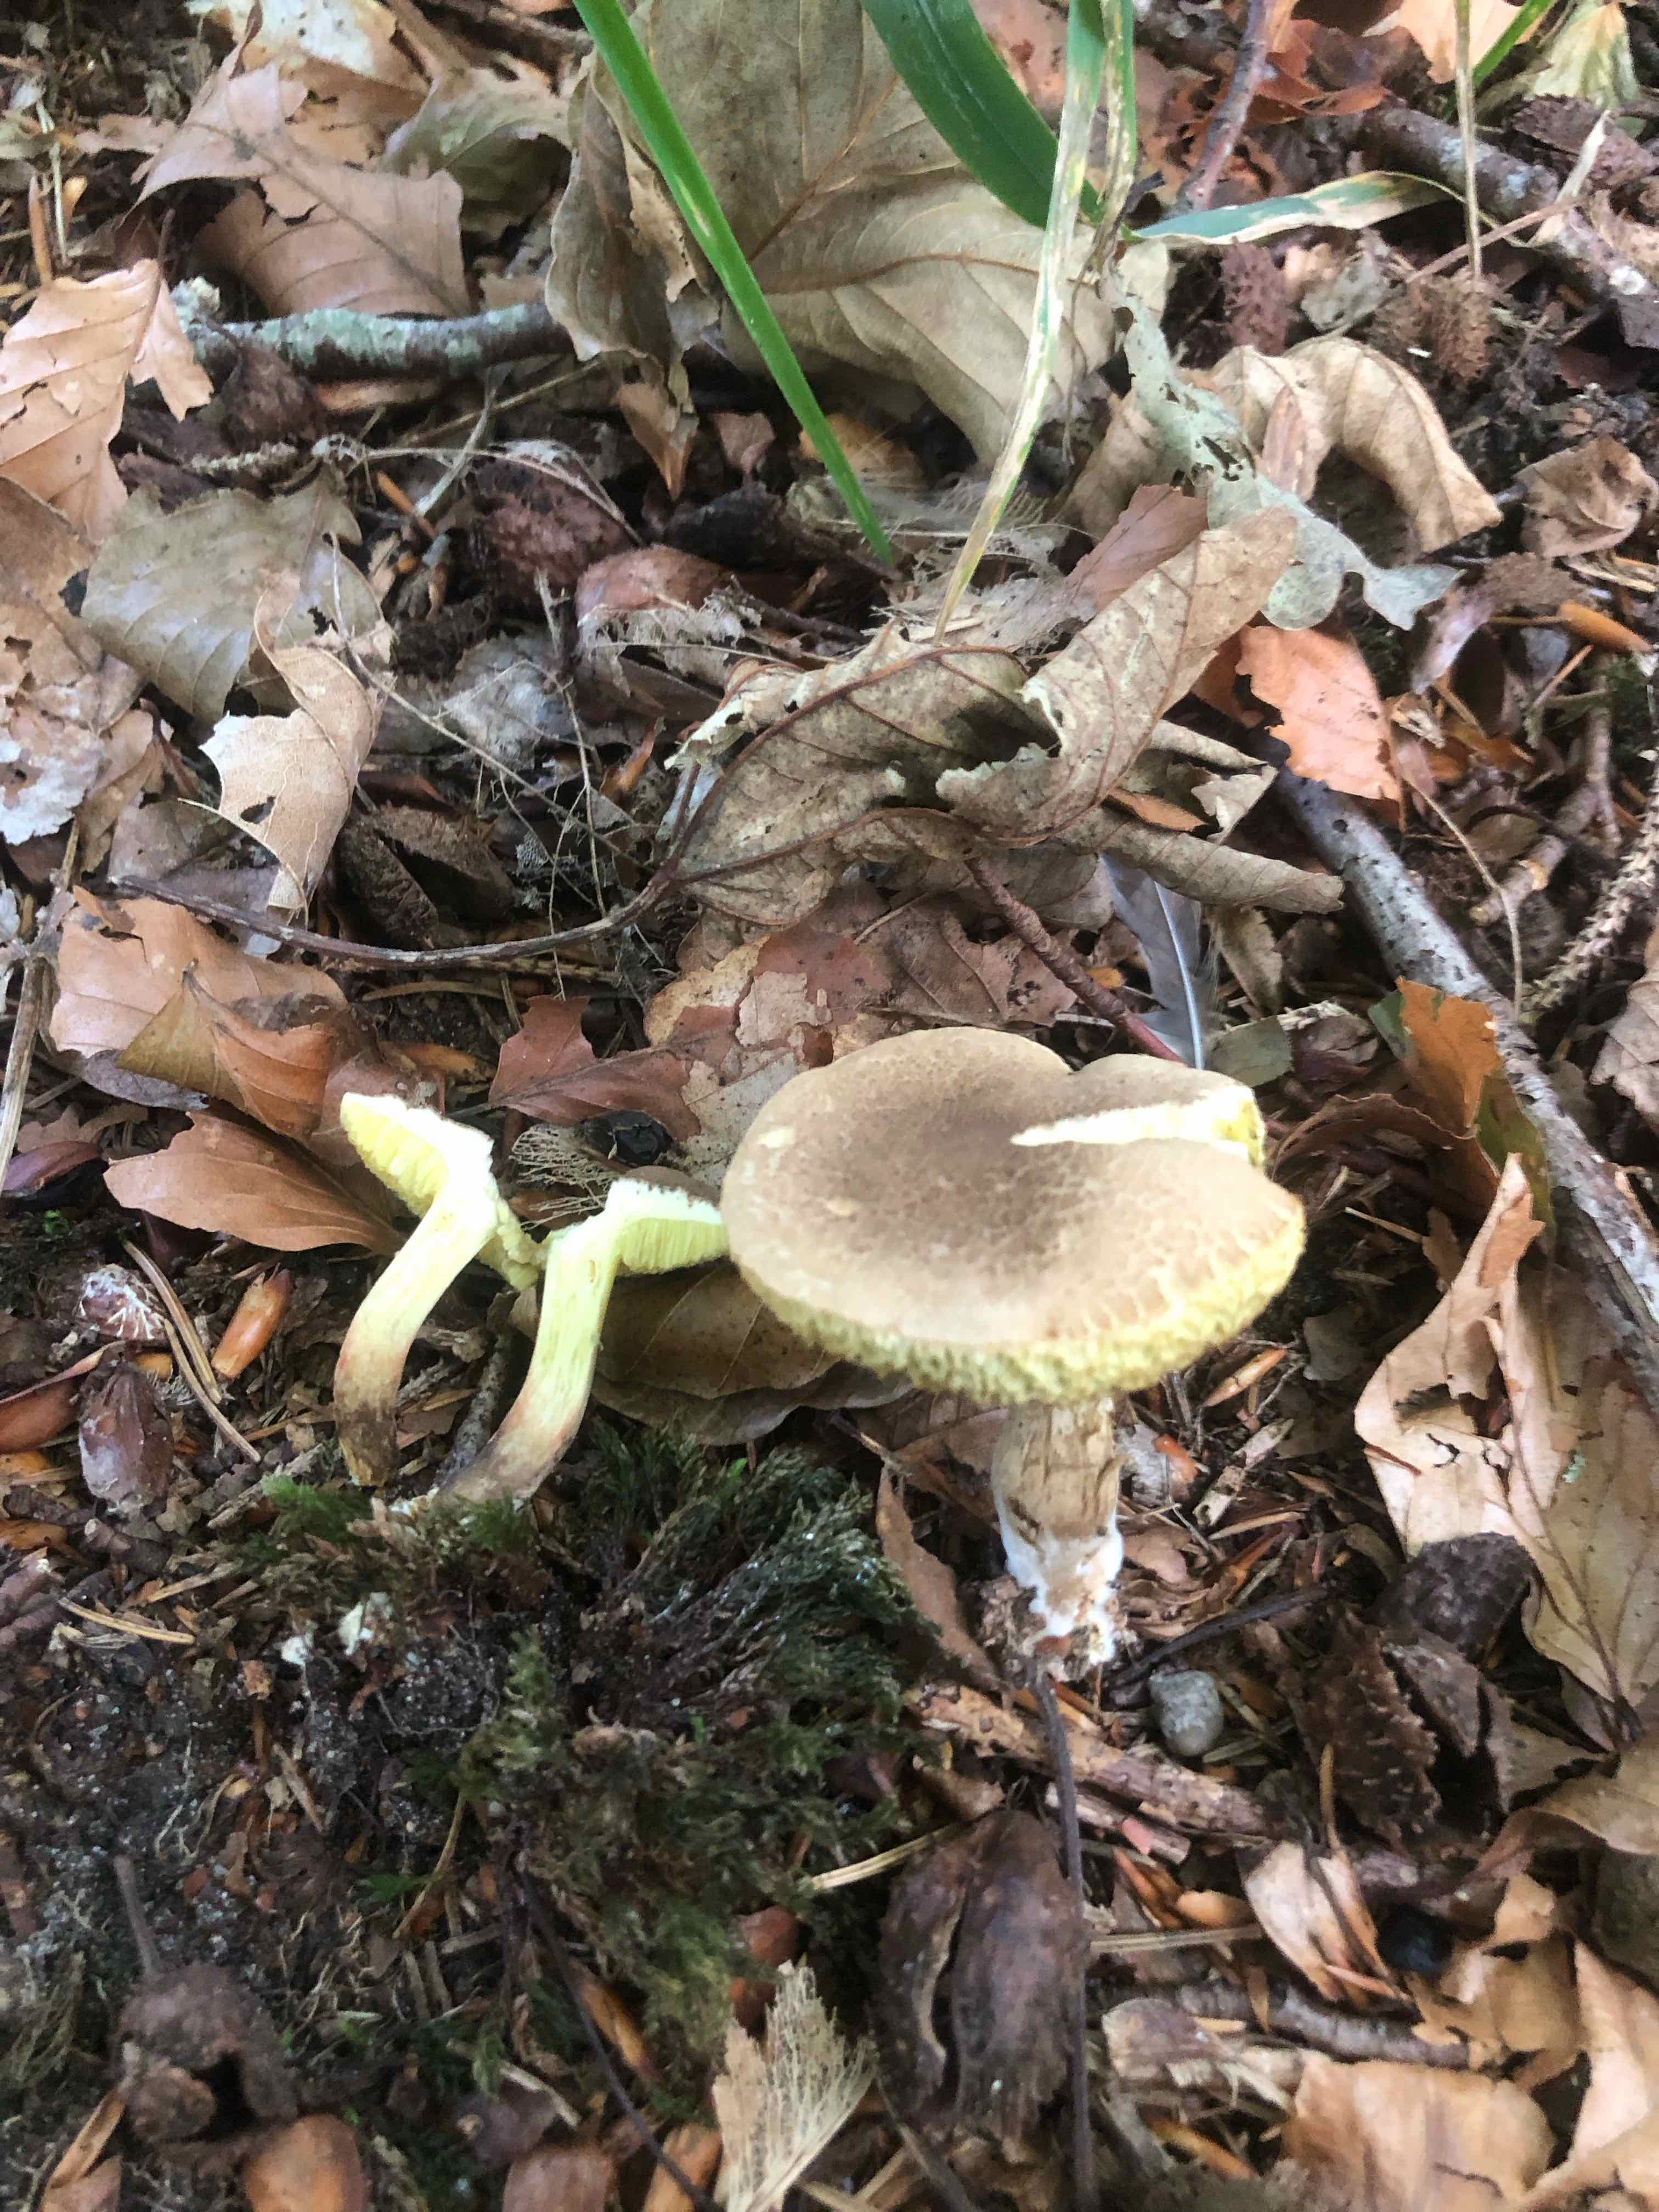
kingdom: Fungi
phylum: Basidiomycota
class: Agaricomycetes
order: Boletales
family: Boletaceae
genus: Xerocomellus
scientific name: Xerocomellus porosporus
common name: hvidsprukken rørhat
